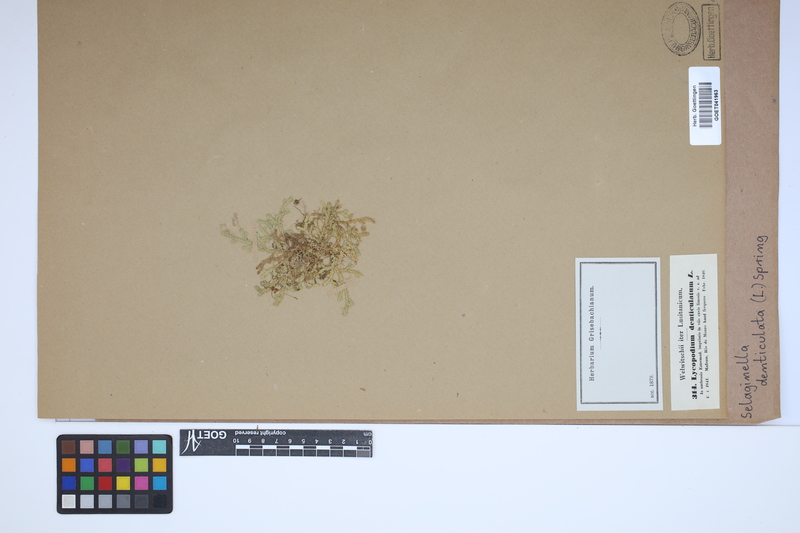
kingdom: Plantae
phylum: Tracheophyta
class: Lycopodiopsida
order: Selaginellales
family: Selaginellaceae
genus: Selaginella
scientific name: Selaginella denticulata
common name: Toothed-leaved clubmoss
